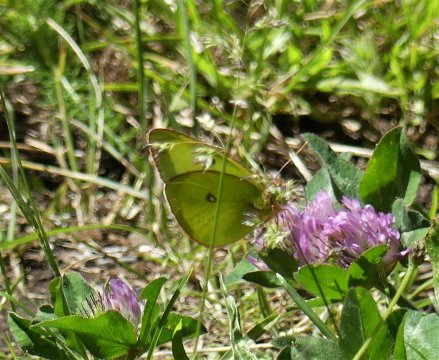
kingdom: Animalia
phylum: Arthropoda
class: Insecta
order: Lepidoptera
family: Pieridae
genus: Colias
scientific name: Colias occidentalis
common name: Western Sulphur
